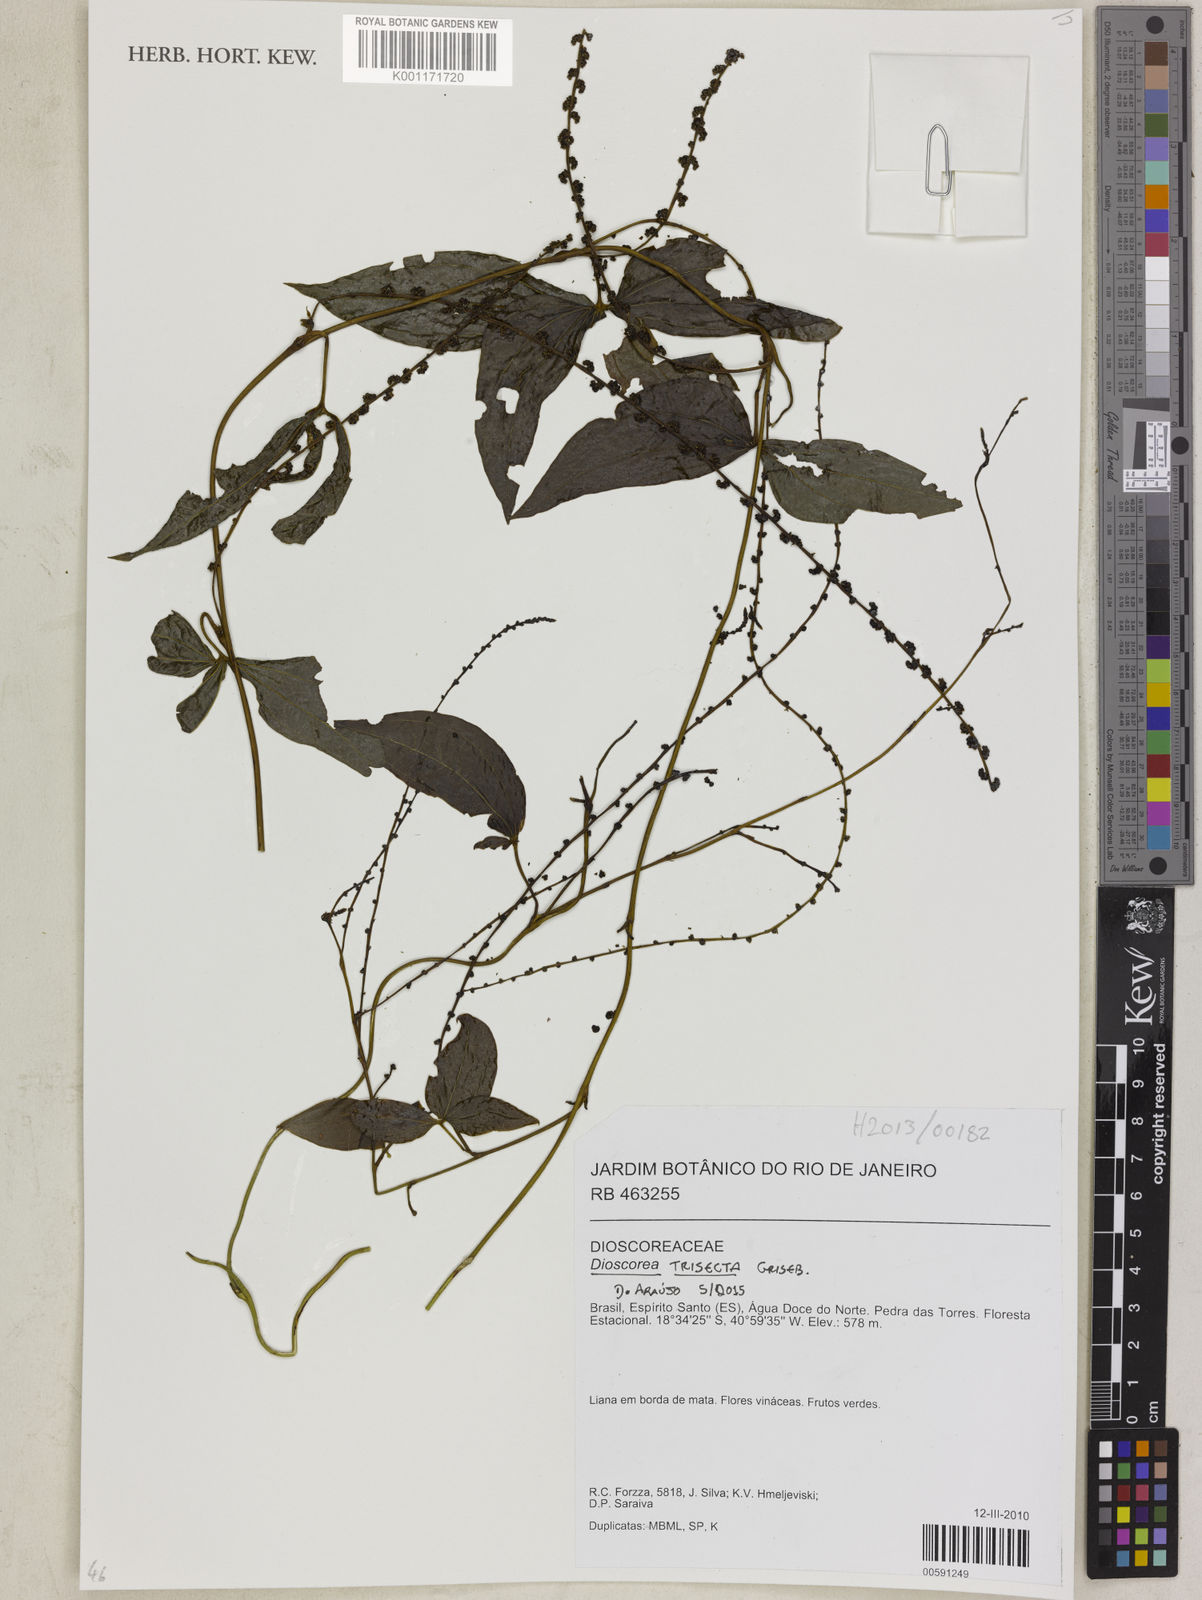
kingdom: Plantae
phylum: Tracheophyta
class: Liliopsida
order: Dioscoreales
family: Dioscoreaceae
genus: Dioscorea
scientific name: Dioscorea trisecta
